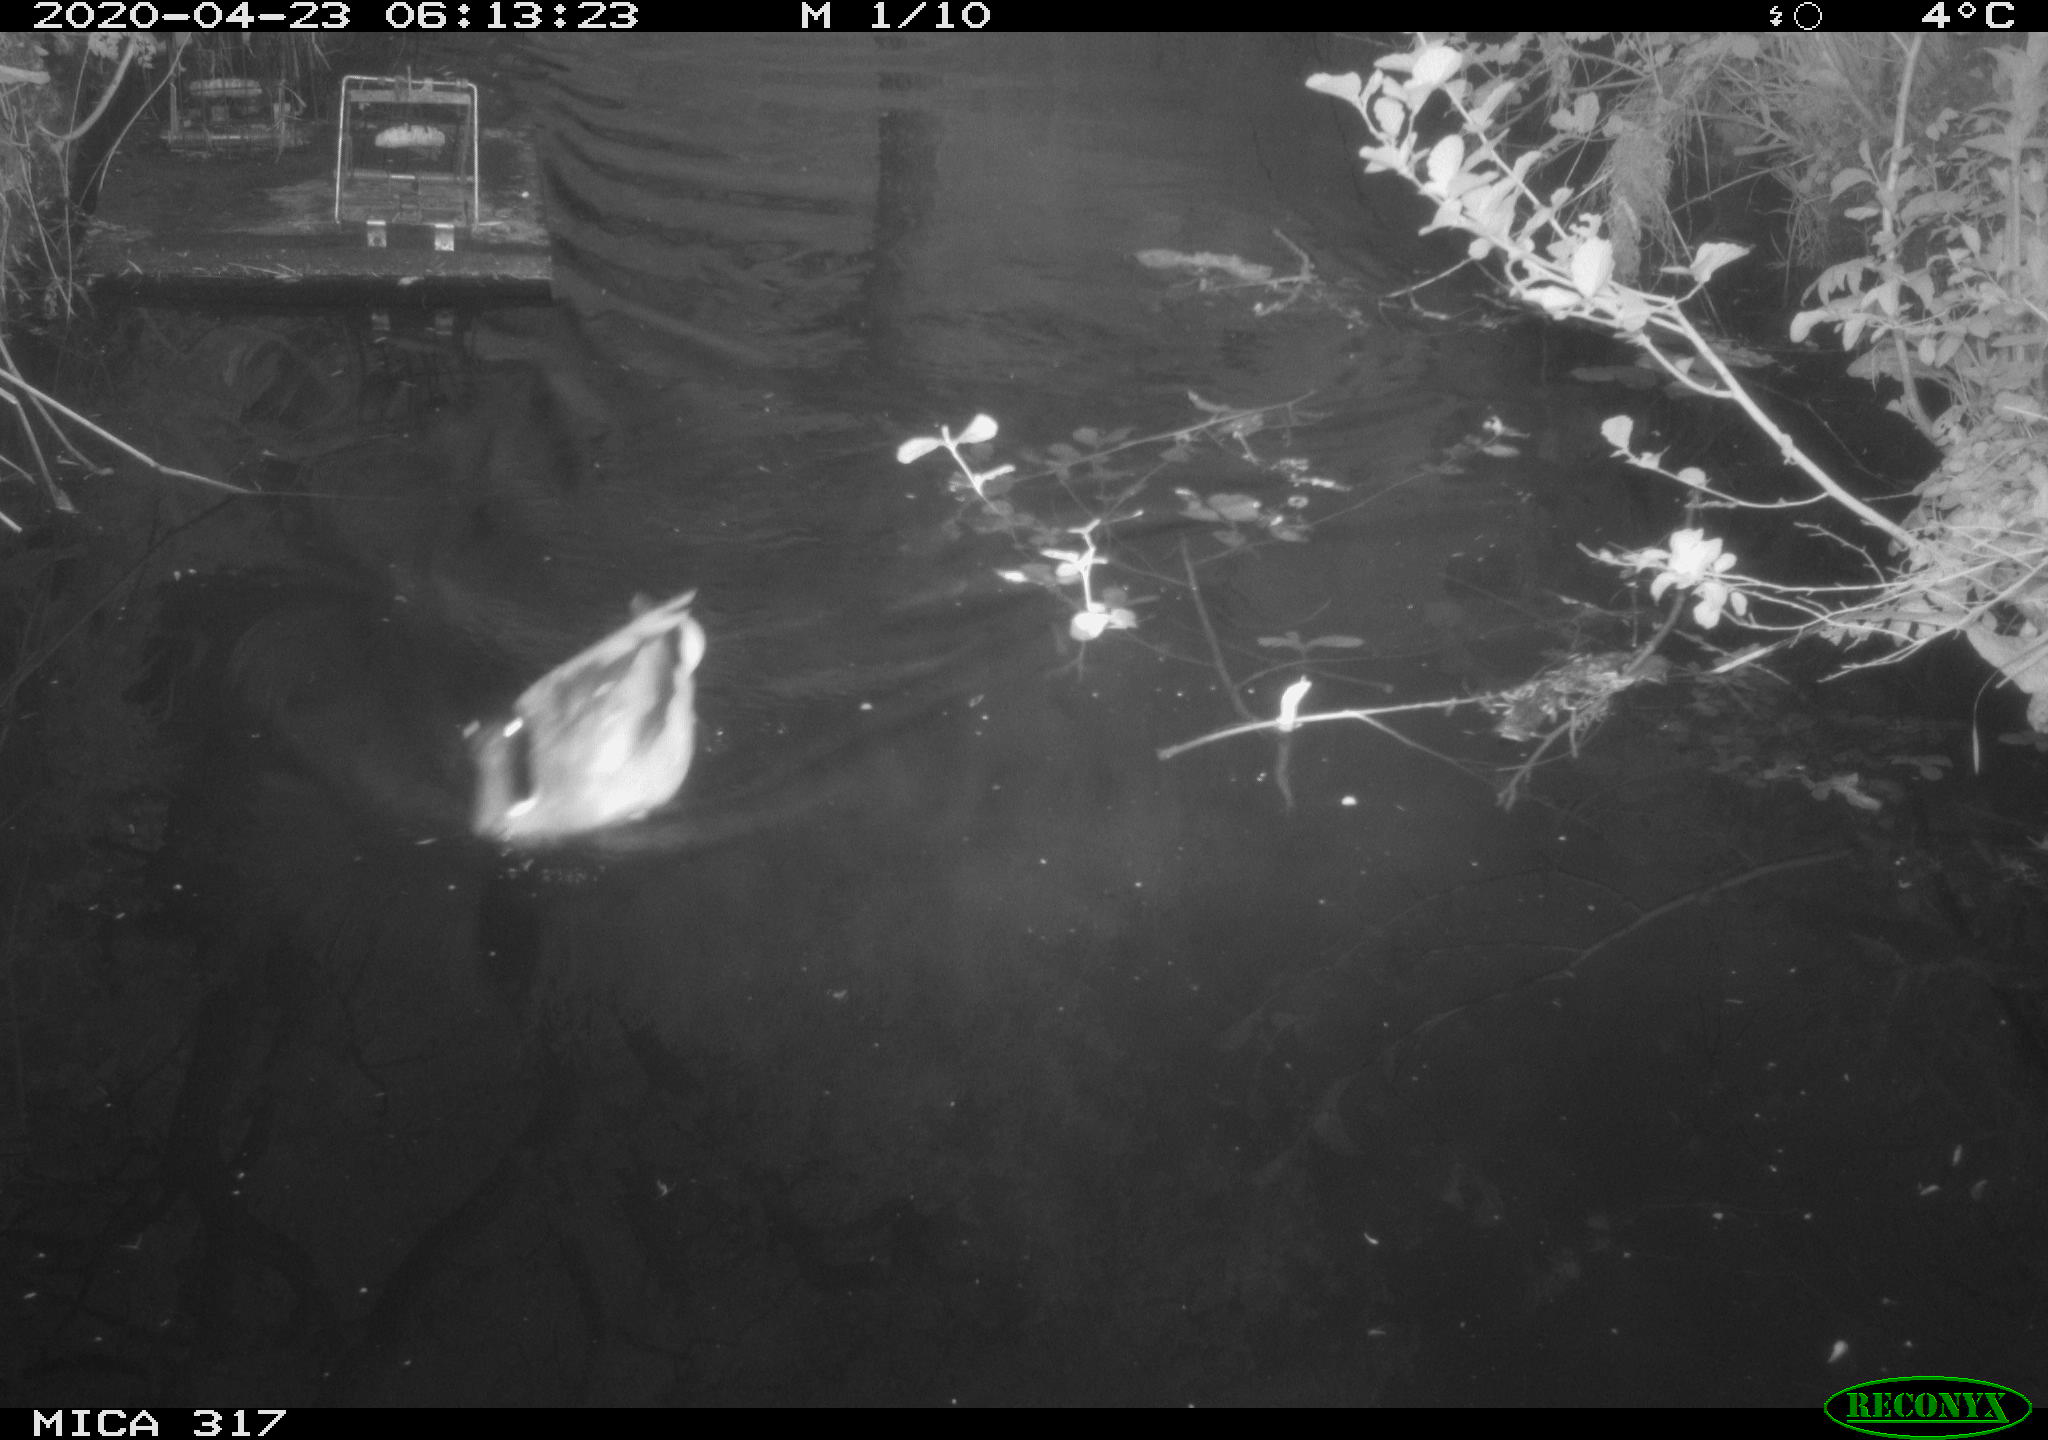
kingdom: Animalia
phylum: Chordata
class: Aves
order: Gruiformes
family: Rallidae
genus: Gallinula
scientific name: Gallinula chloropus
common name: Common moorhen
